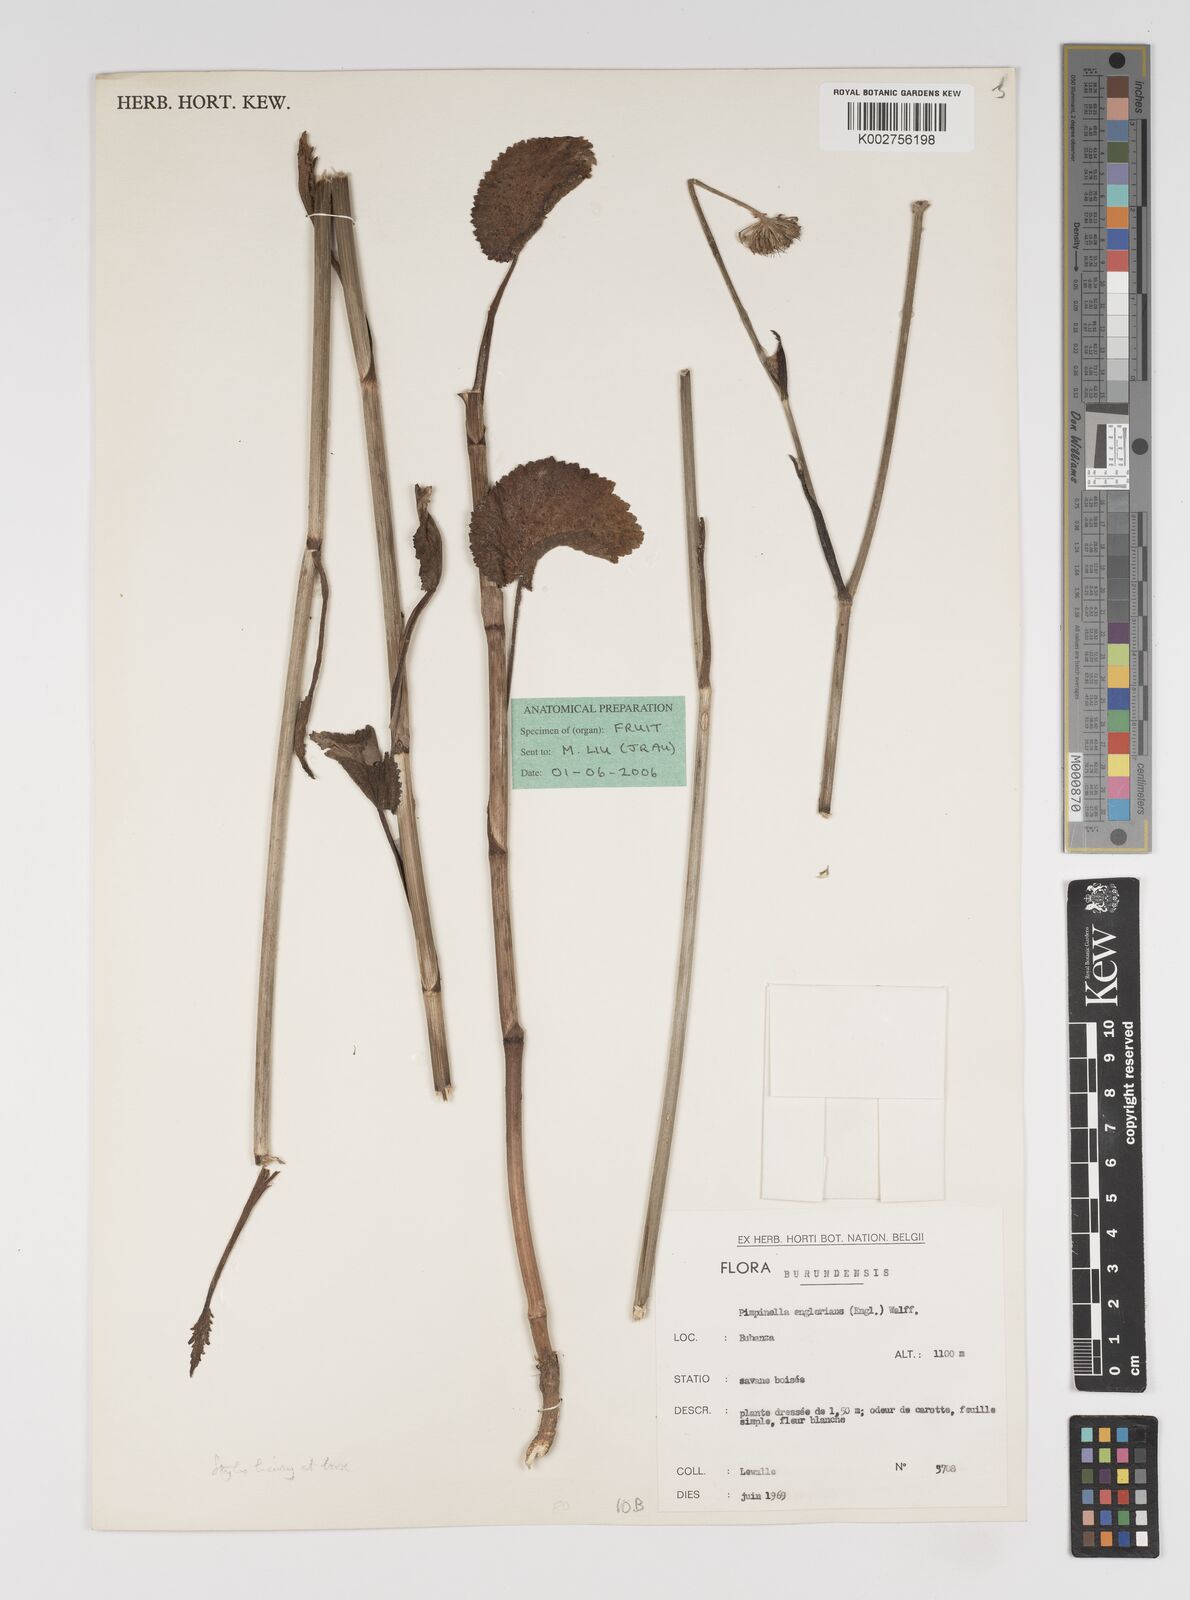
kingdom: Plantae
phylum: Tracheophyta
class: Magnoliopsida
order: Apiales
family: Apiaceae
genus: Pimpinella
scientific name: Pimpinella ledermannii
